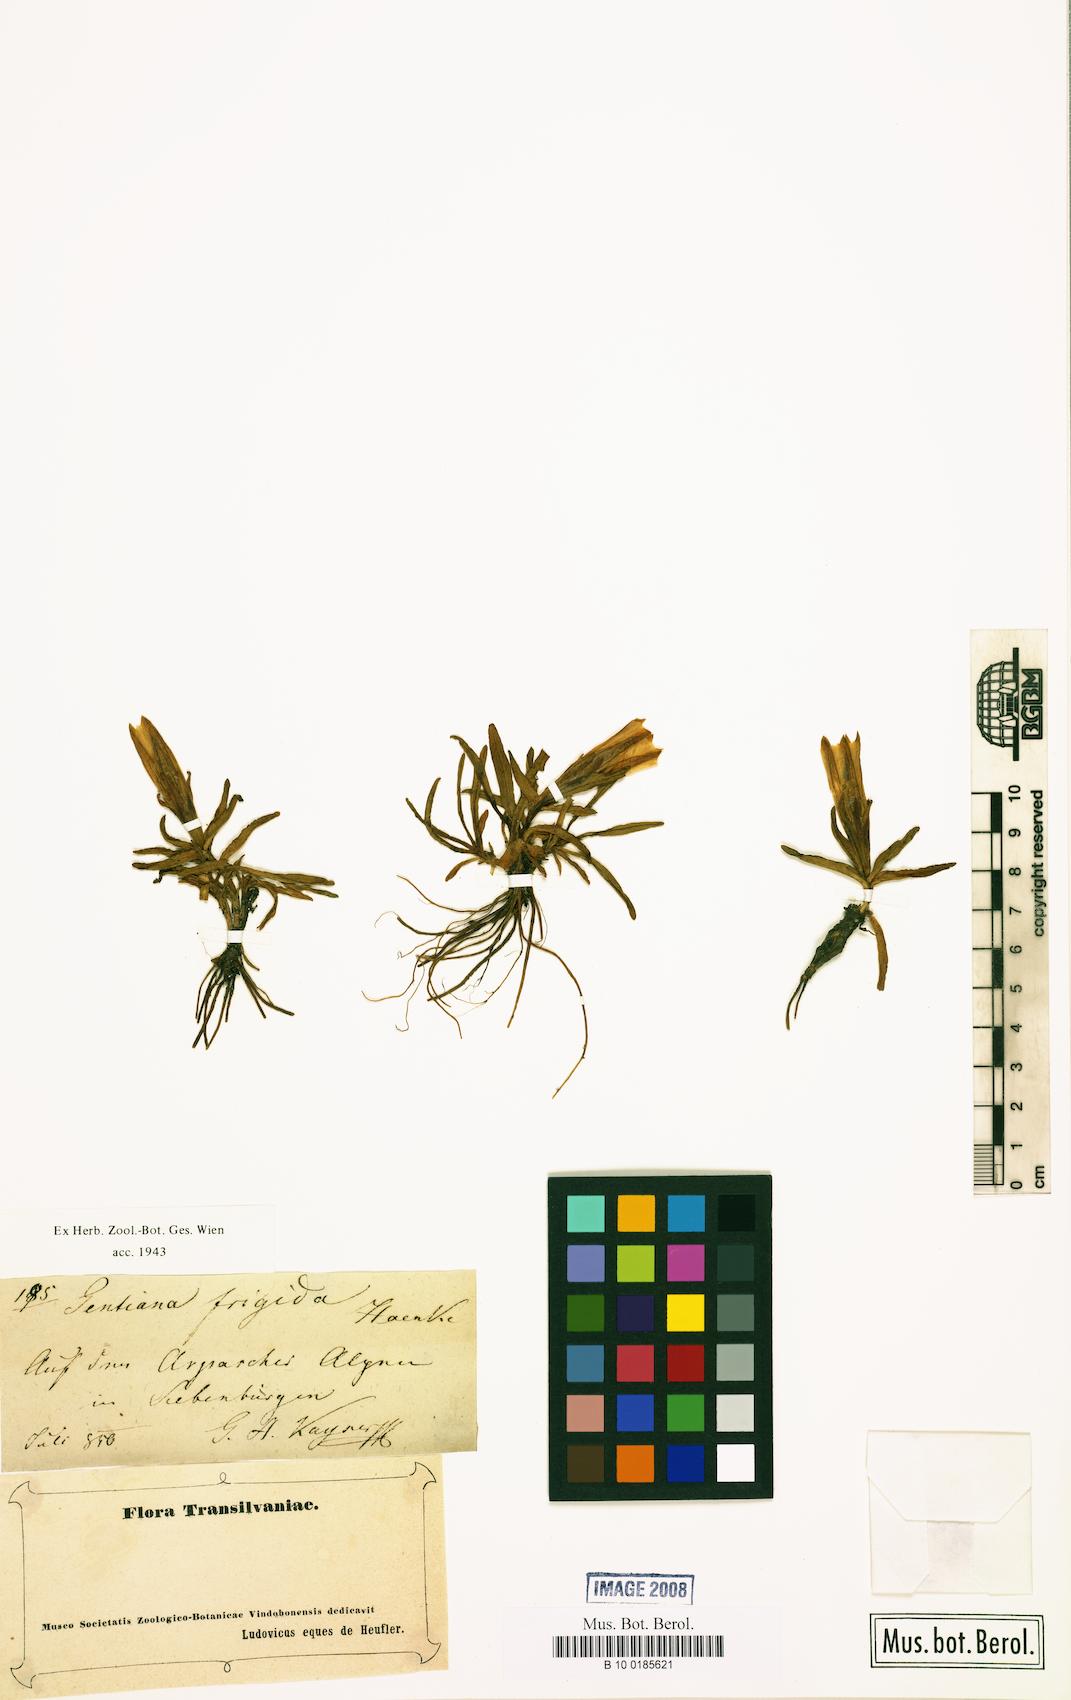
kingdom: Plantae
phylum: Tracheophyta
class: Magnoliopsida
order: Gentianales
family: Gentianaceae
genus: Gentiana
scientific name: Gentiana frigida
